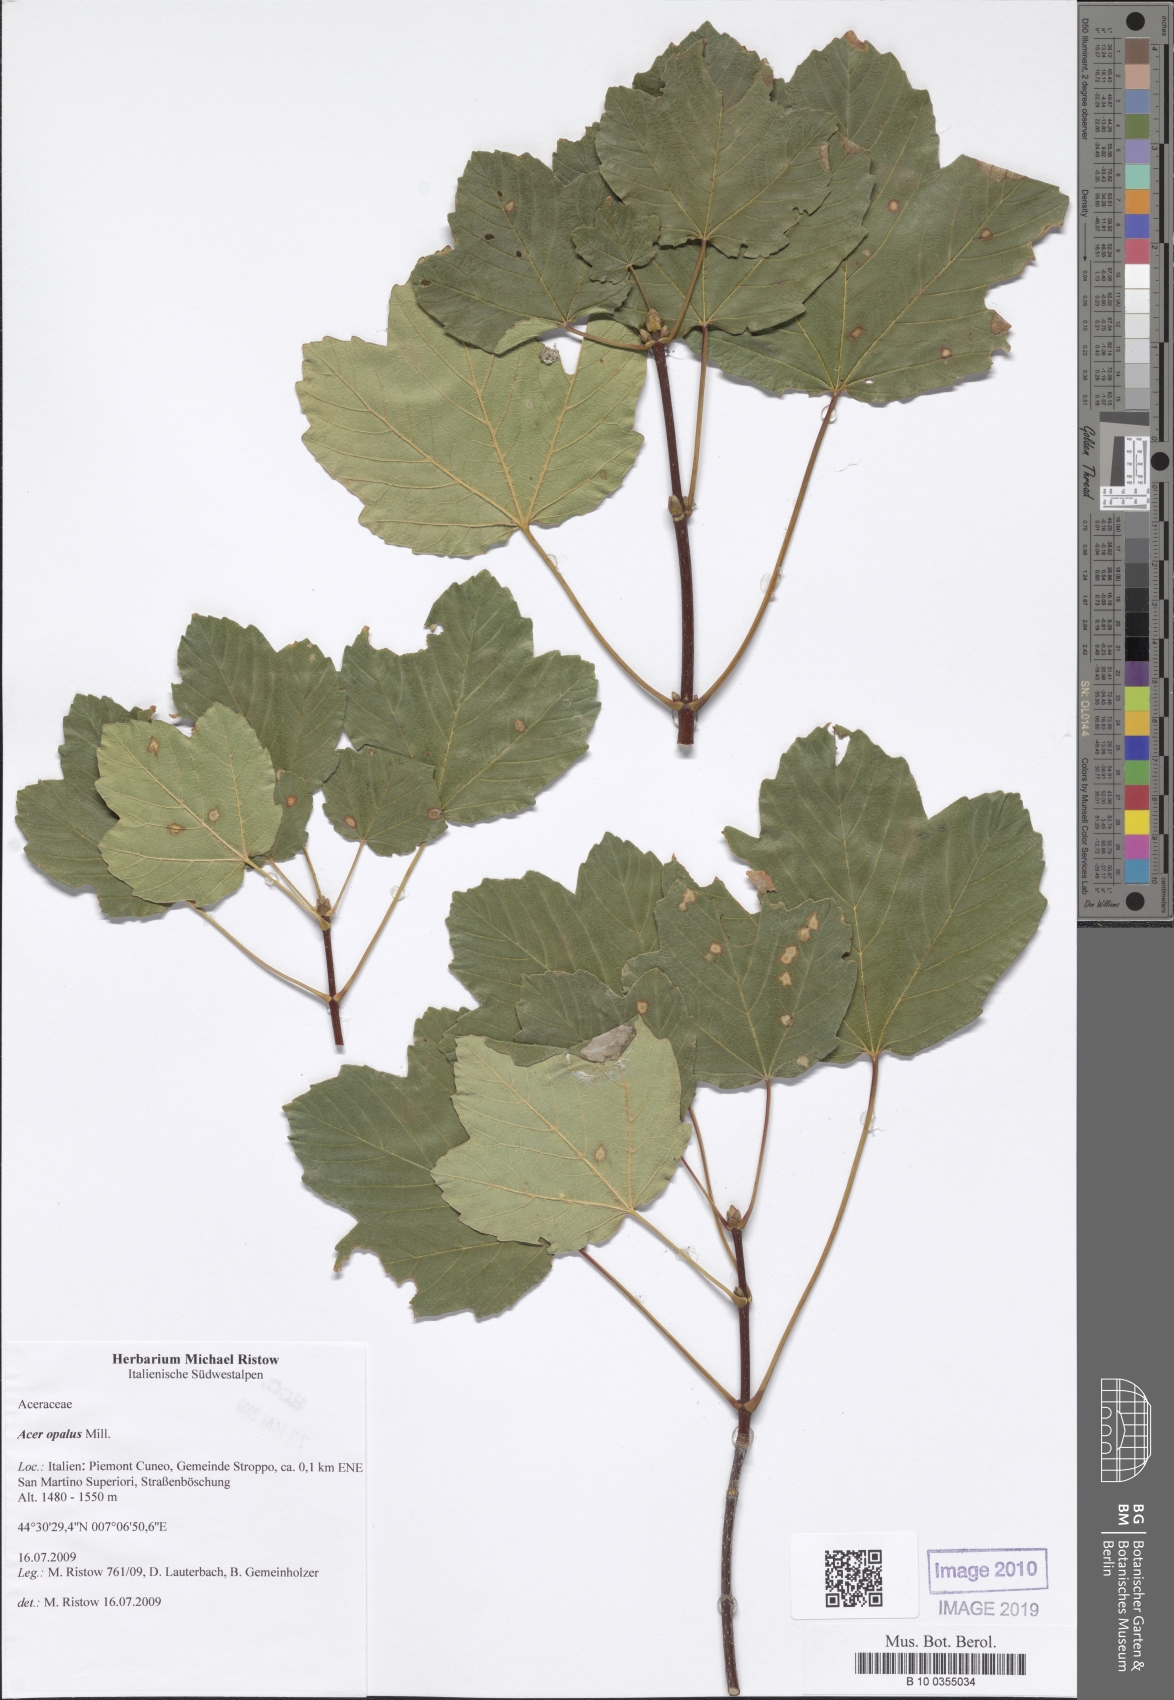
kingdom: Plantae
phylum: Tracheophyta
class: Magnoliopsida
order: Sapindales
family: Sapindaceae
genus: Acer
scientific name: Acer opalus
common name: Italian maple
